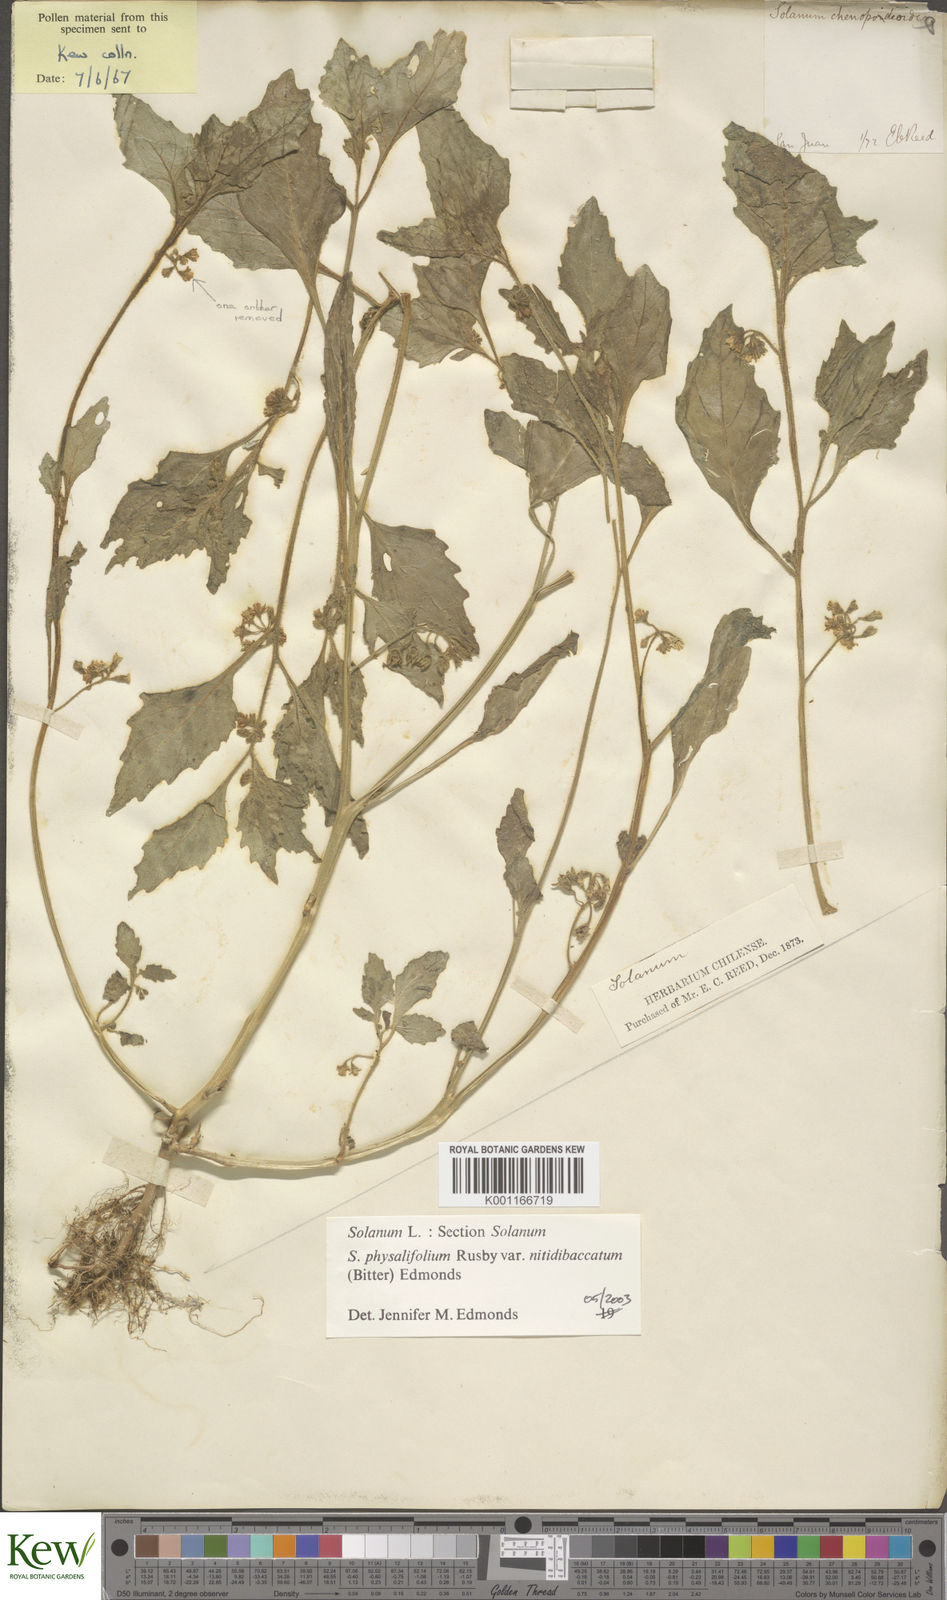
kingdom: Plantae
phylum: Tracheophyta
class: Magnoliopsida
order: Solanales
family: Solanaceae
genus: Solanum
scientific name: Solanum nitidibaccatum
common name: Hairy nightshade
